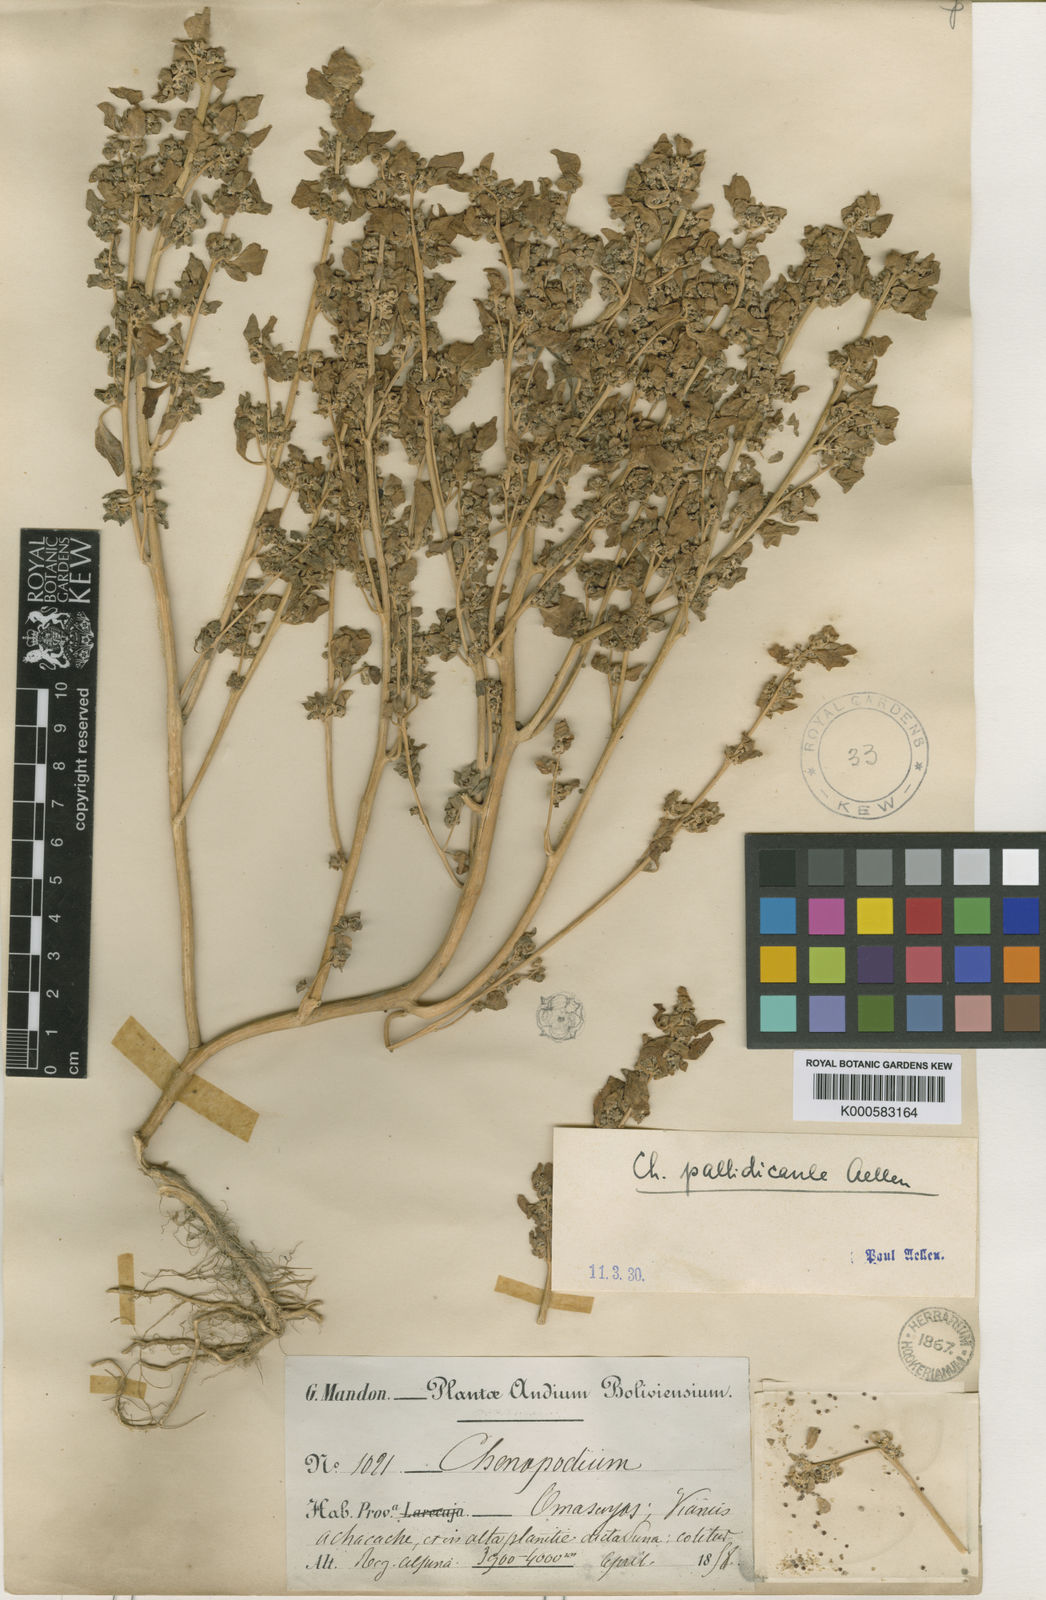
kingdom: Plantae
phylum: Tracheophyta
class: Magnoliopsida
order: Caryophyllales
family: Amaranthaceae
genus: Chenopodium
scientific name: Chenopodium pallidicaule
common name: Canihua
